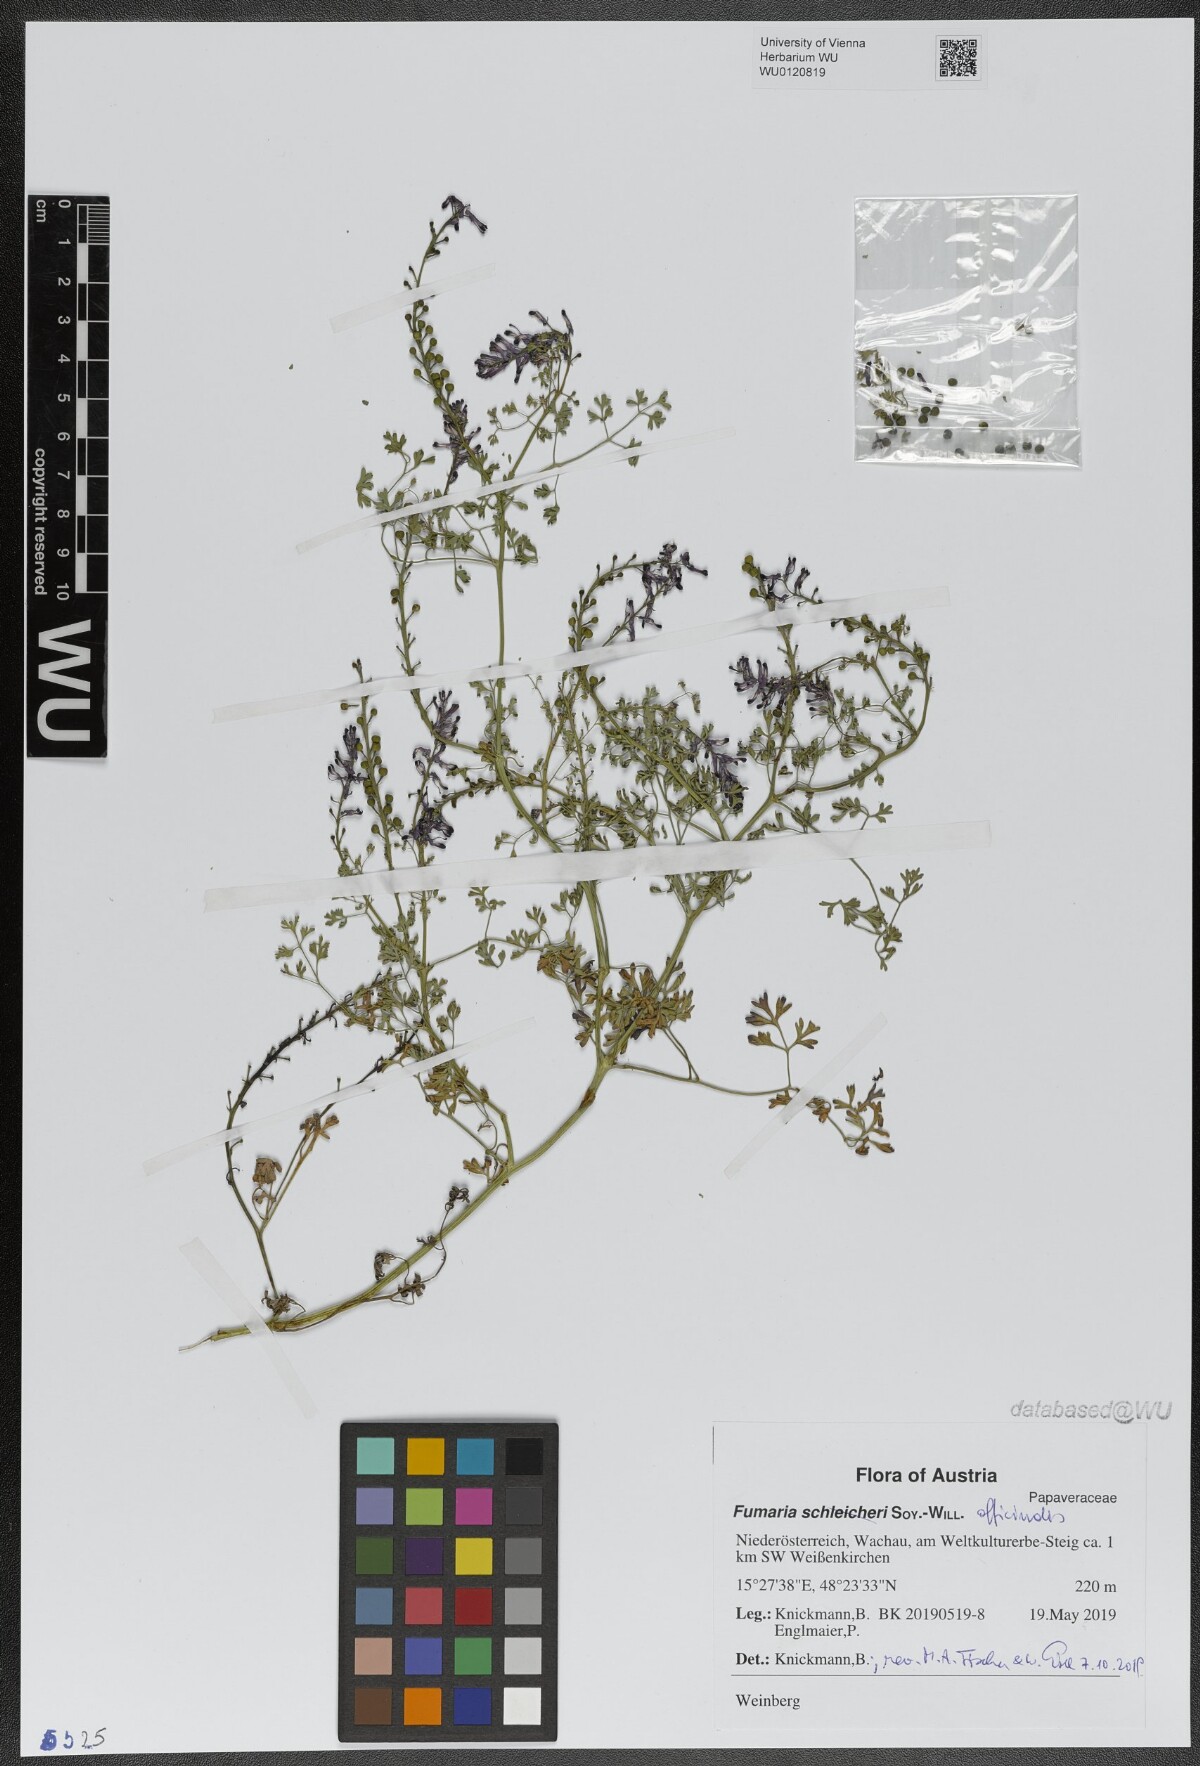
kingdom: Plantae
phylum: Tracheophyta
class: Magnoliopsida
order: Ranunculales
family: Papaveraceae
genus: Fumaria
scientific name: Fumaria officinalis
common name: Common fumitory
